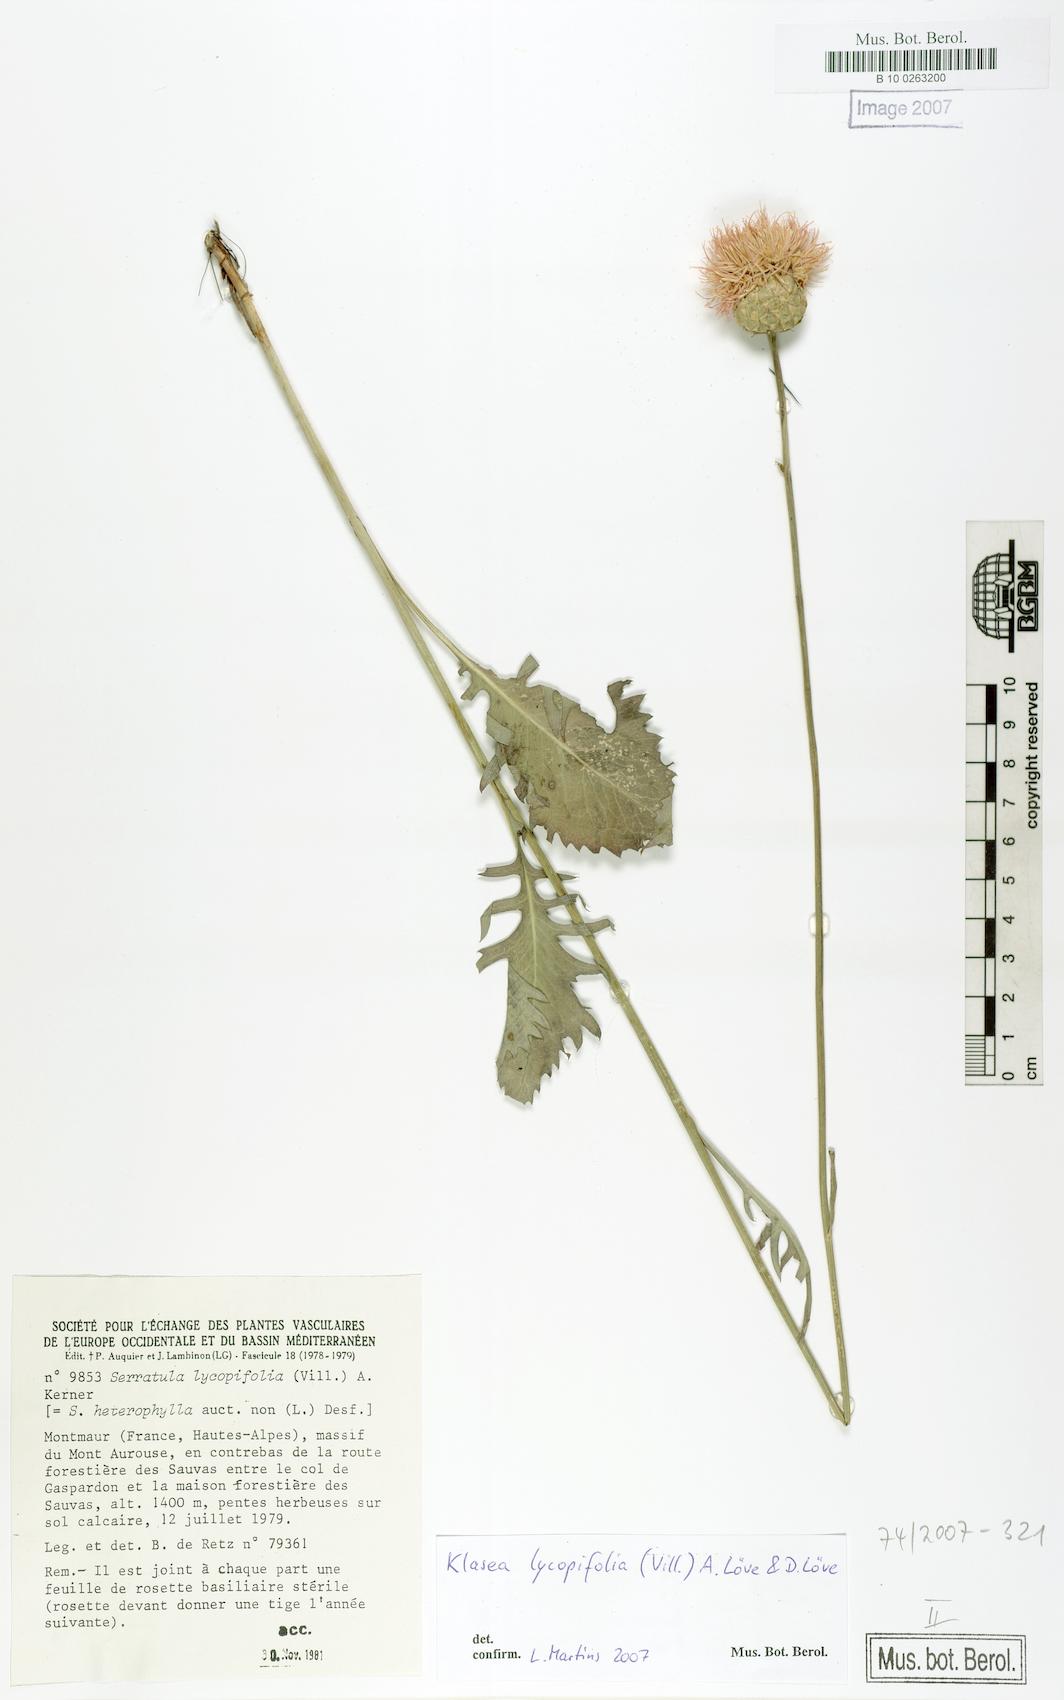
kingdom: Plantae
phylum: Tracheophyta
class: Magnoliopsida
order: Asterales
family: Asteraceae
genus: Klasea
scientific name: Klasea lycopifolia
